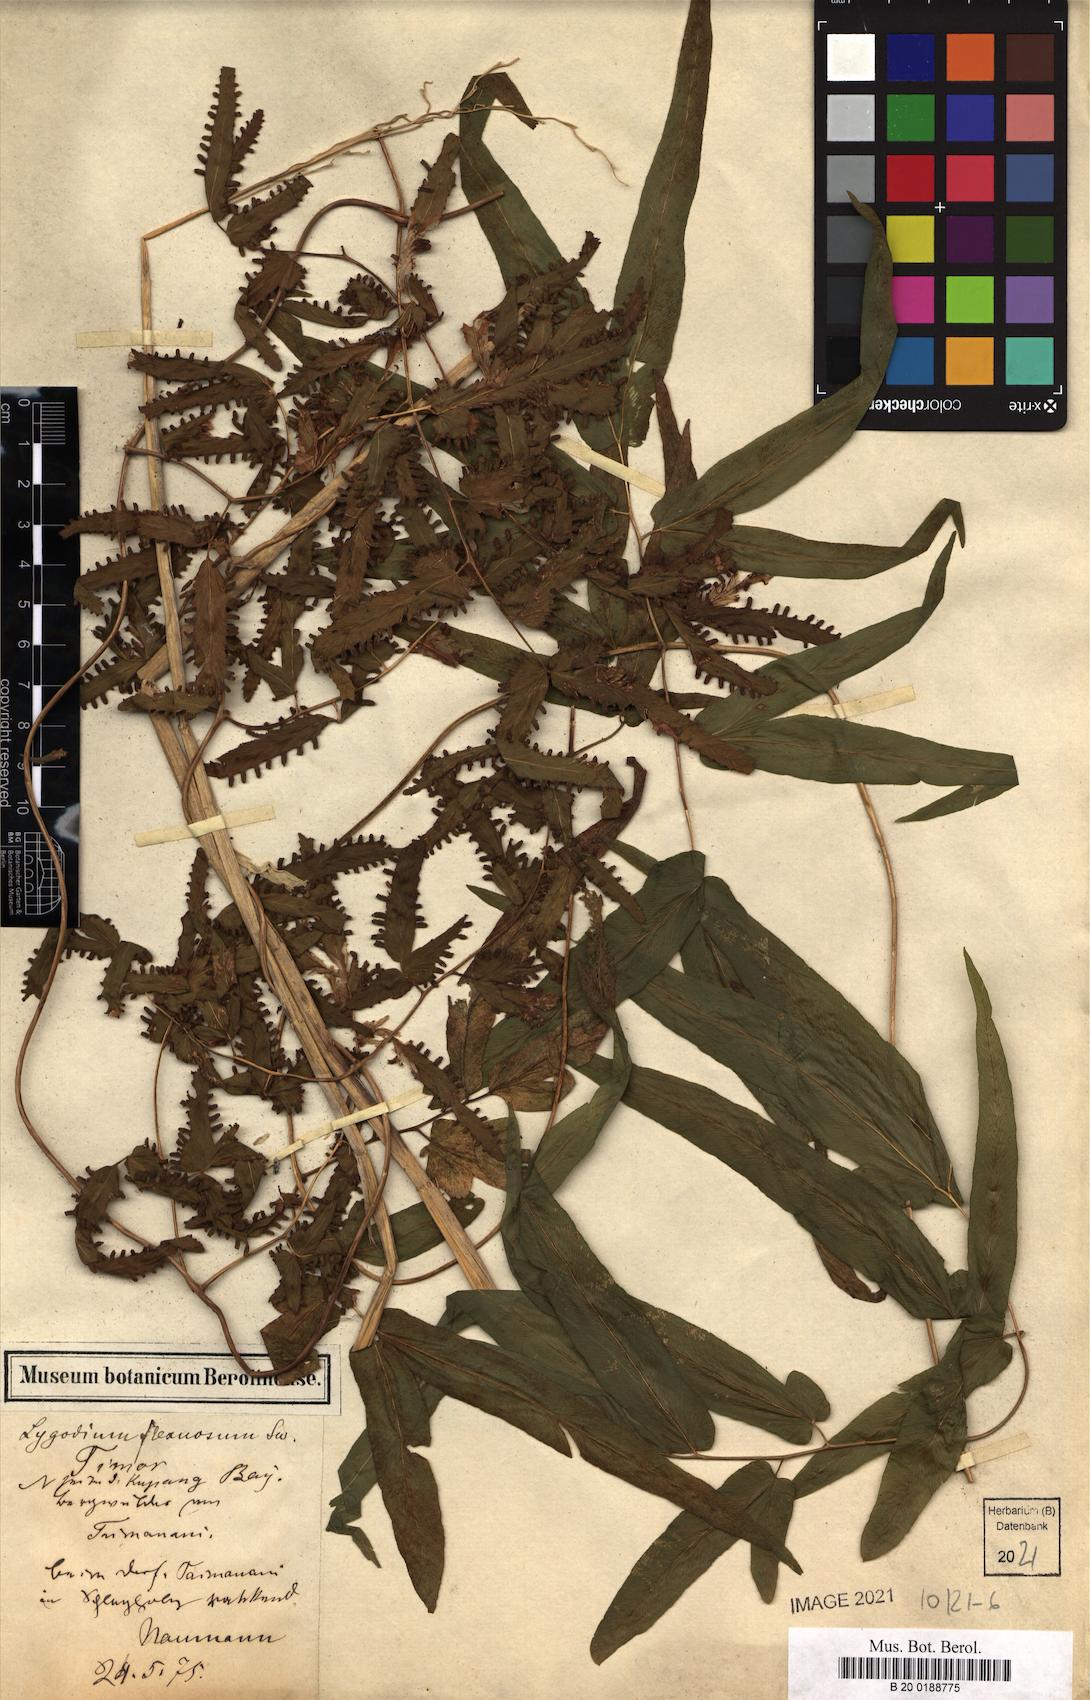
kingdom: Plantae
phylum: Tracheophyta
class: Polypodiopsida
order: Schizaeales
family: Lygodiaceae
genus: Lygodium
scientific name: Lygodium flexuosum
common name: Maidenhair creeper
